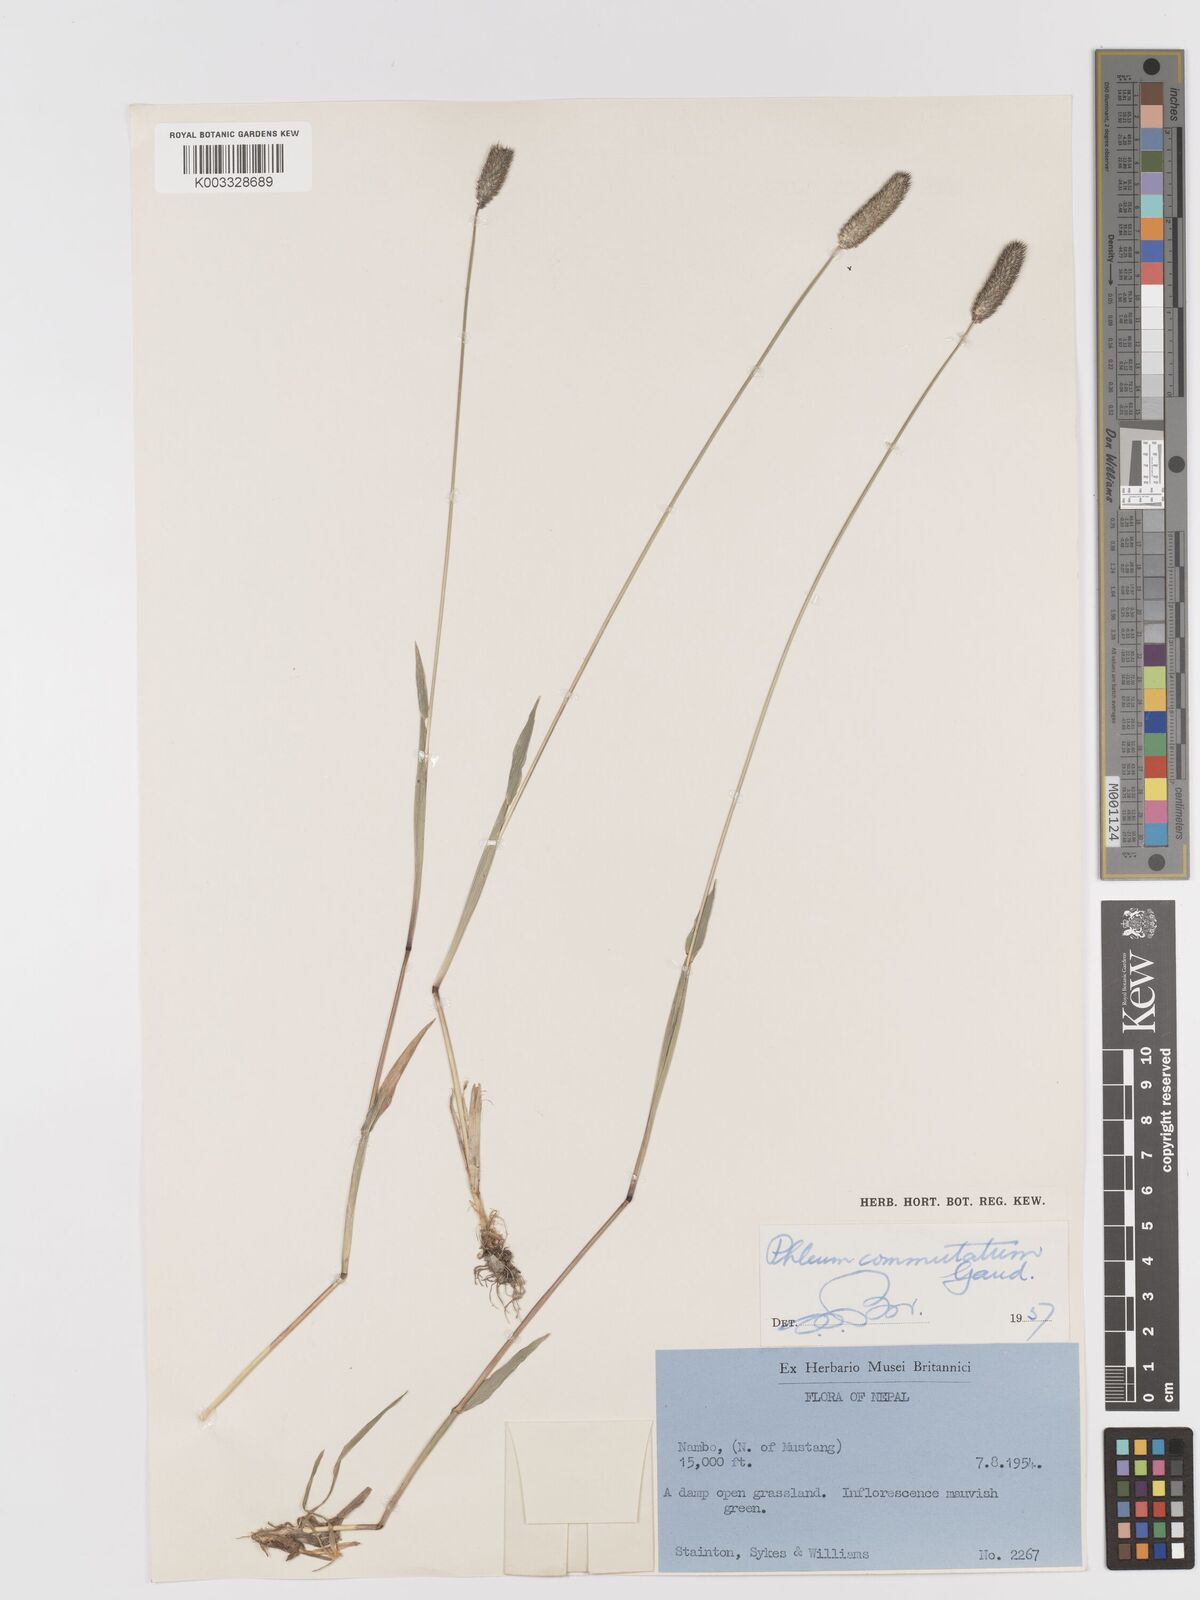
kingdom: Plantae
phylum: Tracheophyta
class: Liliopsida
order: Poales
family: Poaceae
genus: Phleum
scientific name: Phleum alpinum
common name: Alpine cat's-tail
